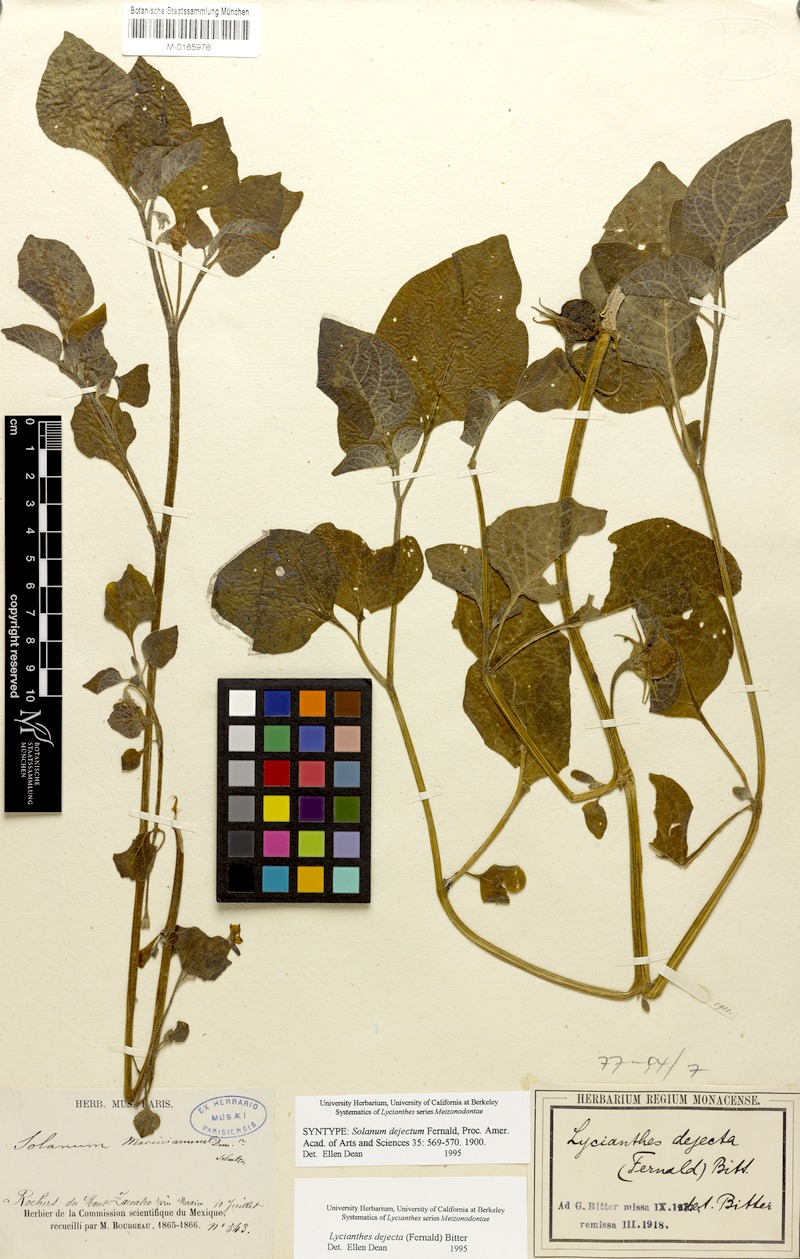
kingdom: Plantae
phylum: Tracheophyta
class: Magnoliopsida
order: Solanales
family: Solanaceae
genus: Lycianthes
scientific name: Lycianthes dejecta
